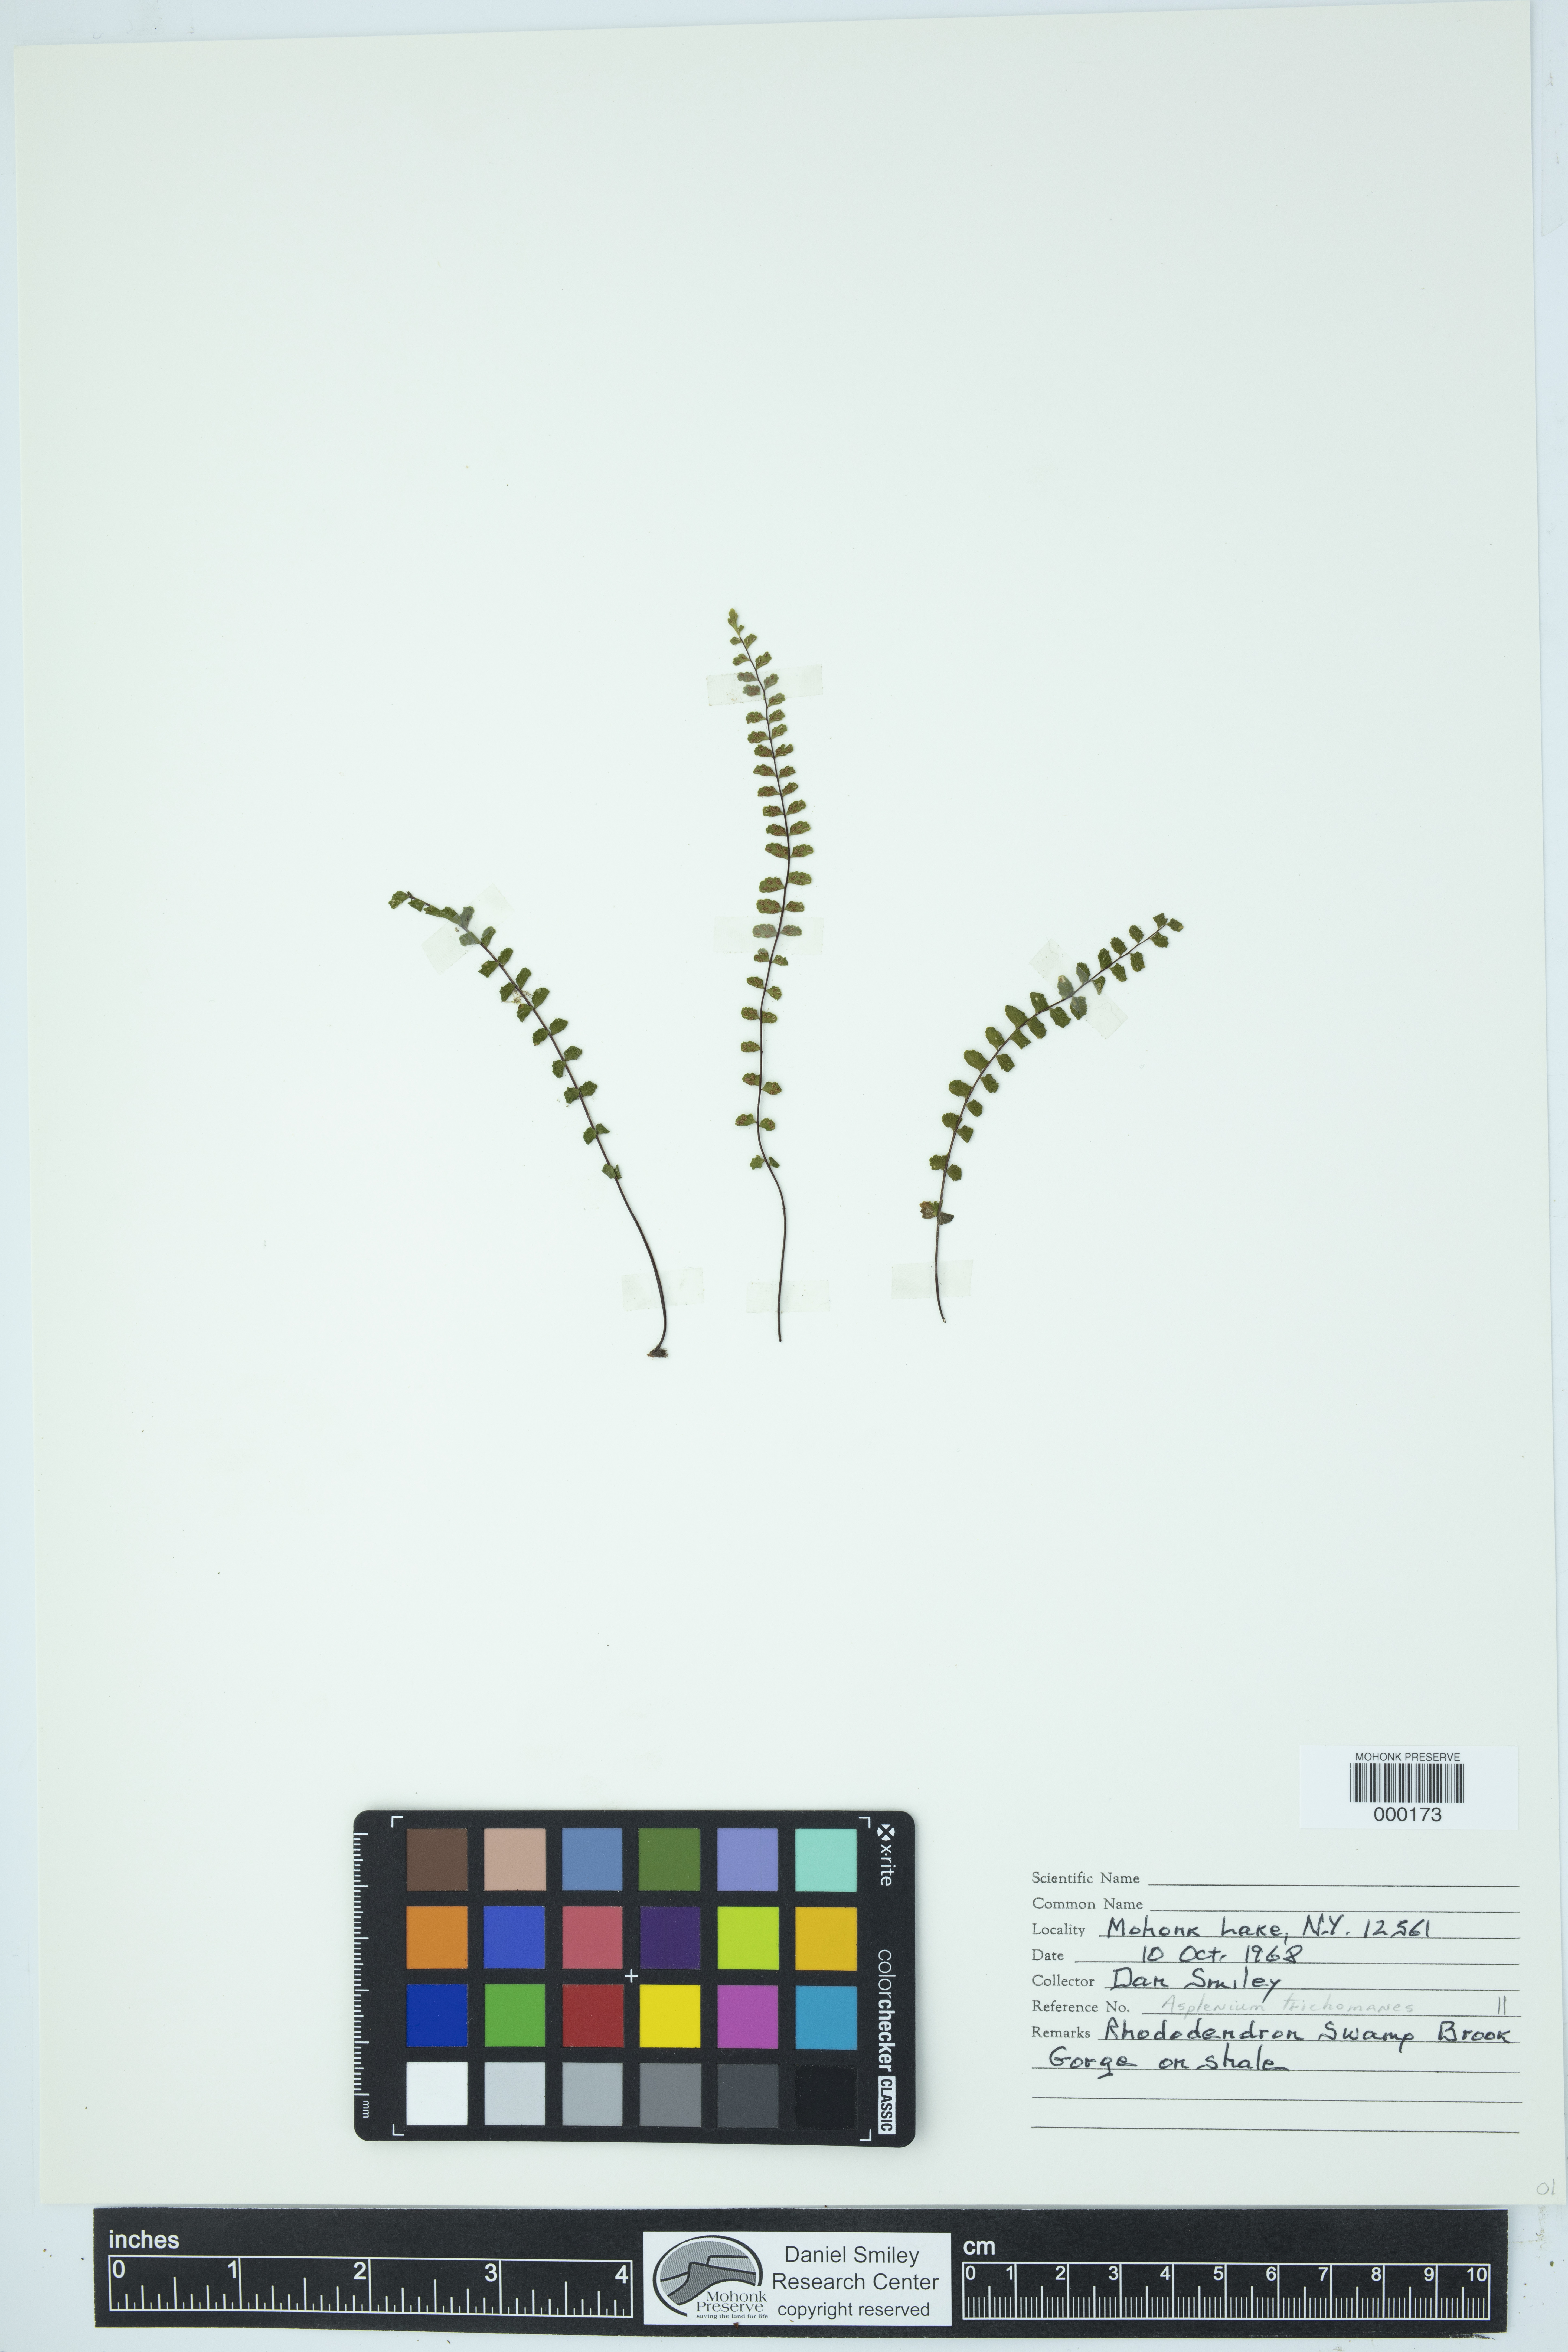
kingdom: Plantae
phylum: Tracheophyta
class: Polypodiopsida
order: Polypodiales
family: Aspleniaceae
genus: Asplenium
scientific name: Asplenium trichomanes
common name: Maidenhair spleenwort
